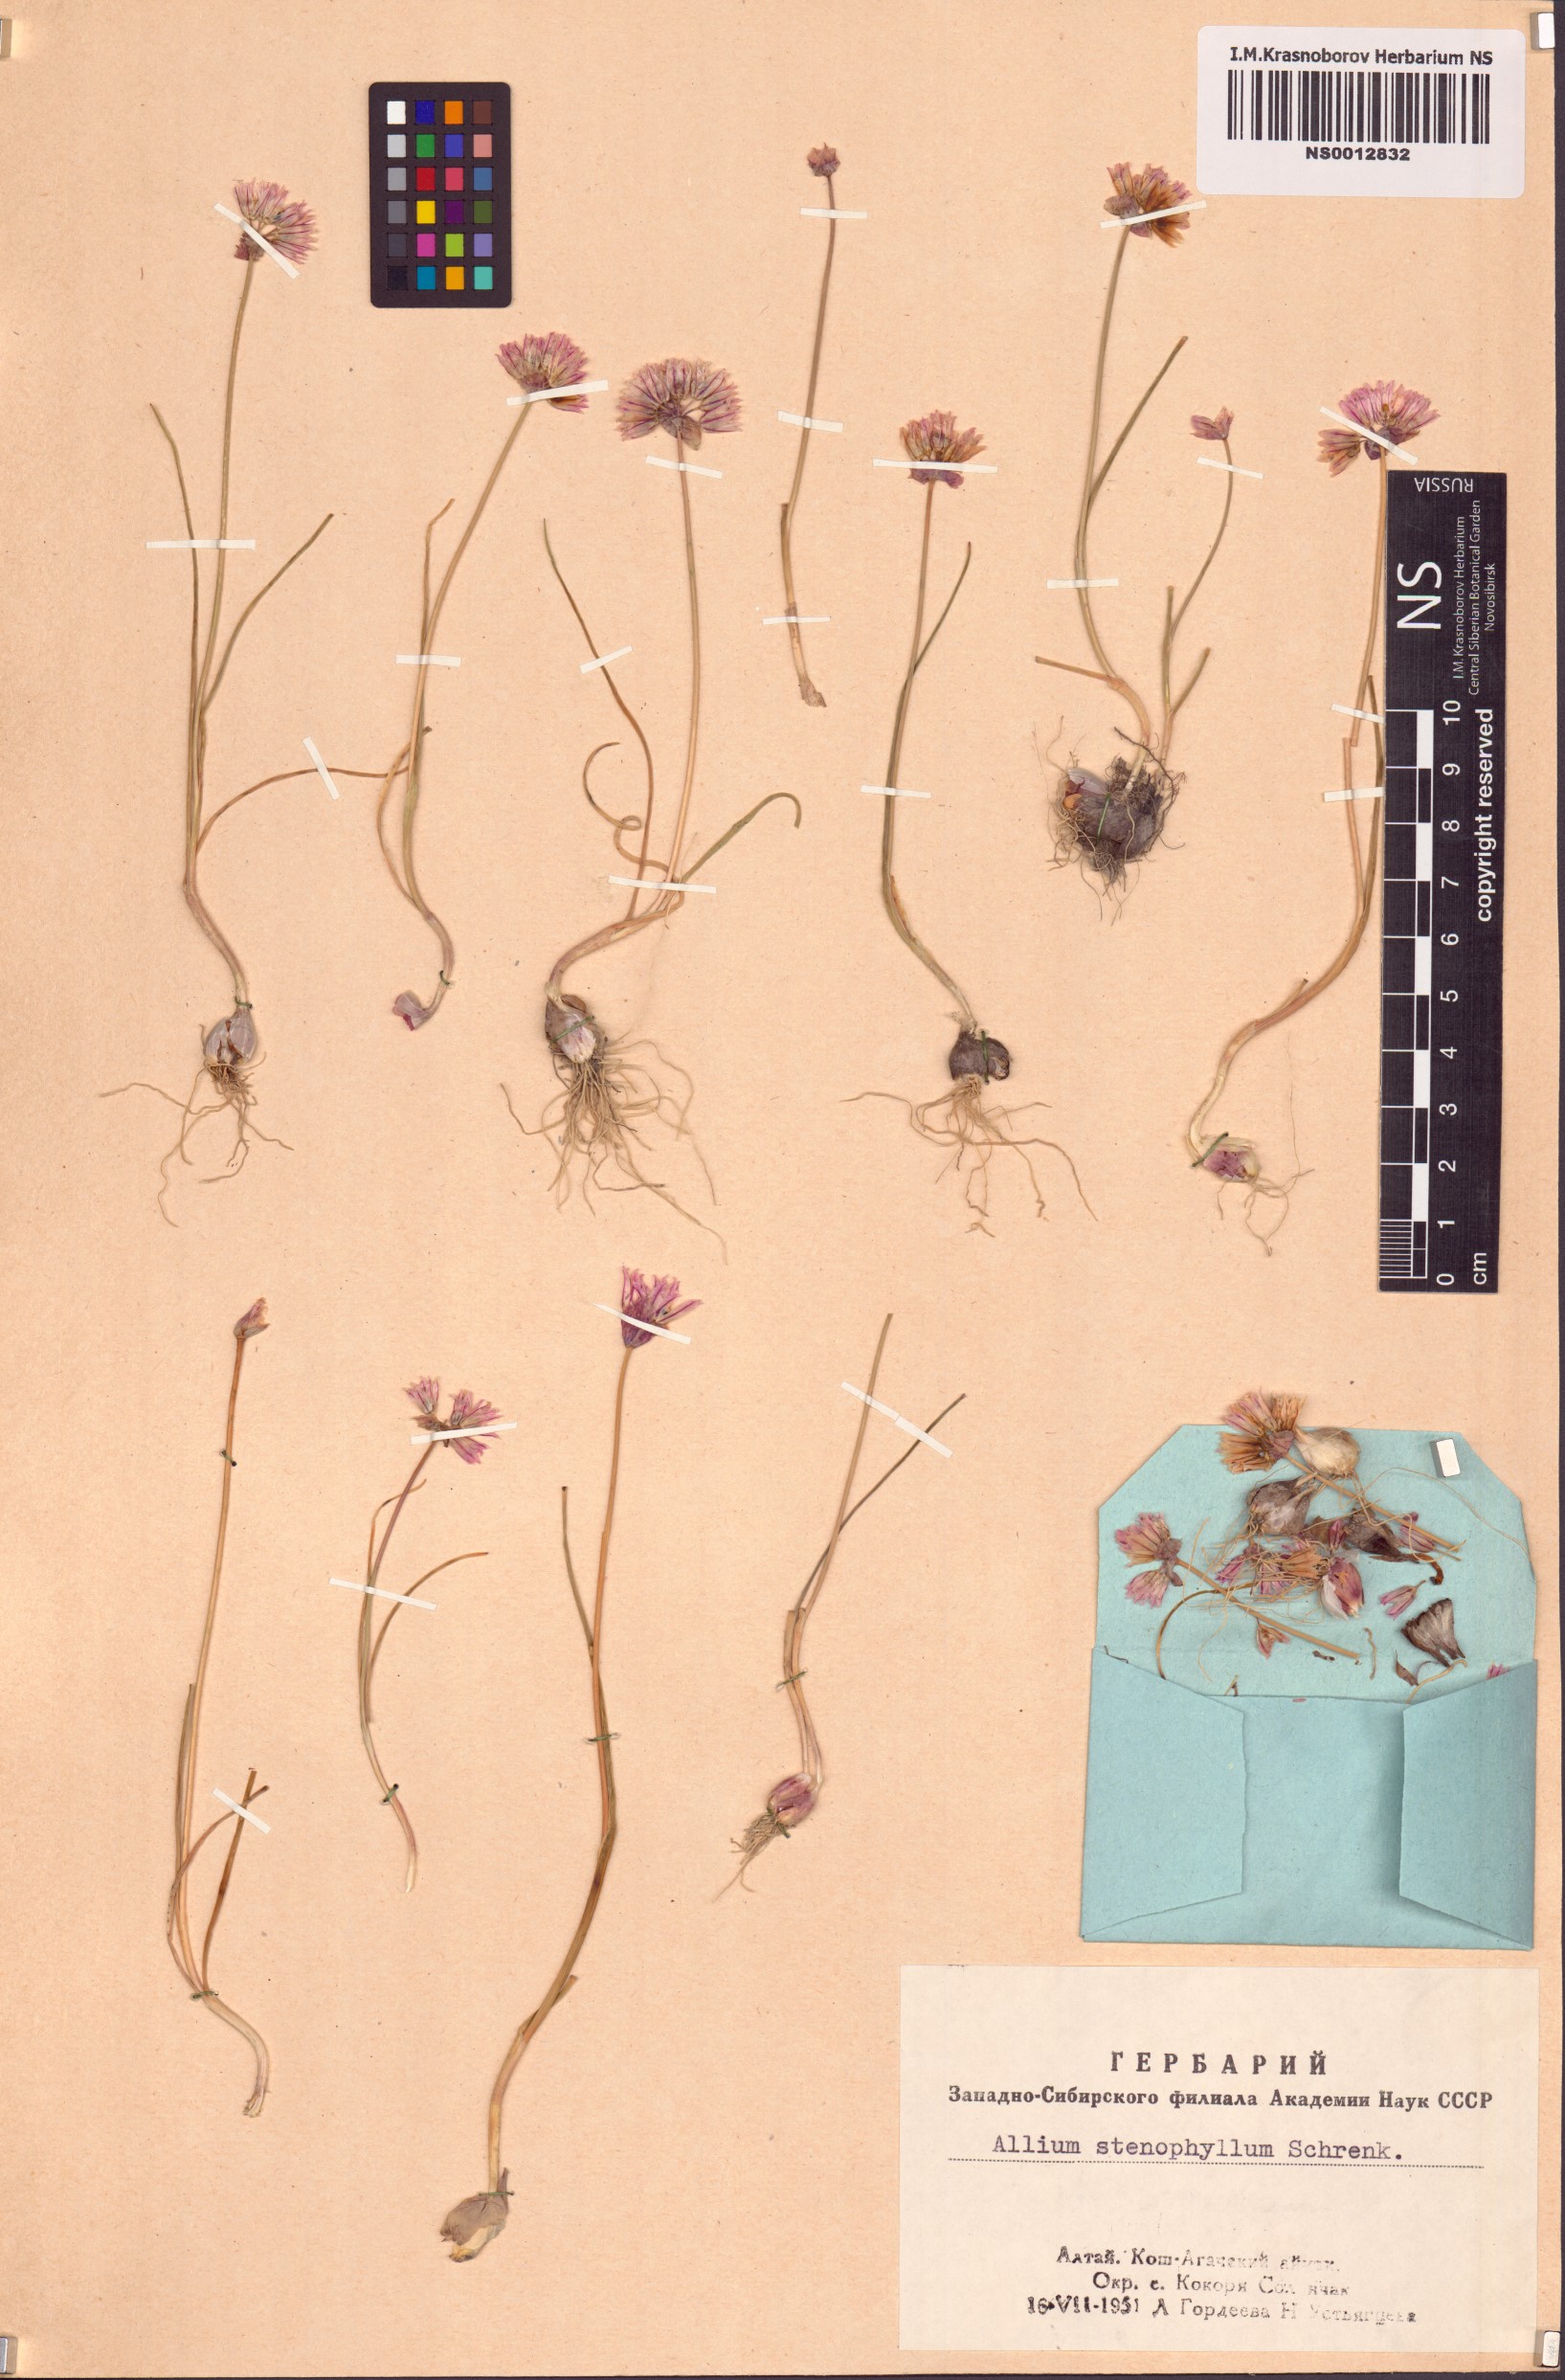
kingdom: Plantae
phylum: Tracheophyta
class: Liliopsida
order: Asparagales
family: Amaryllidaceae
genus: Allium
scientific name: Allium oliganthum
